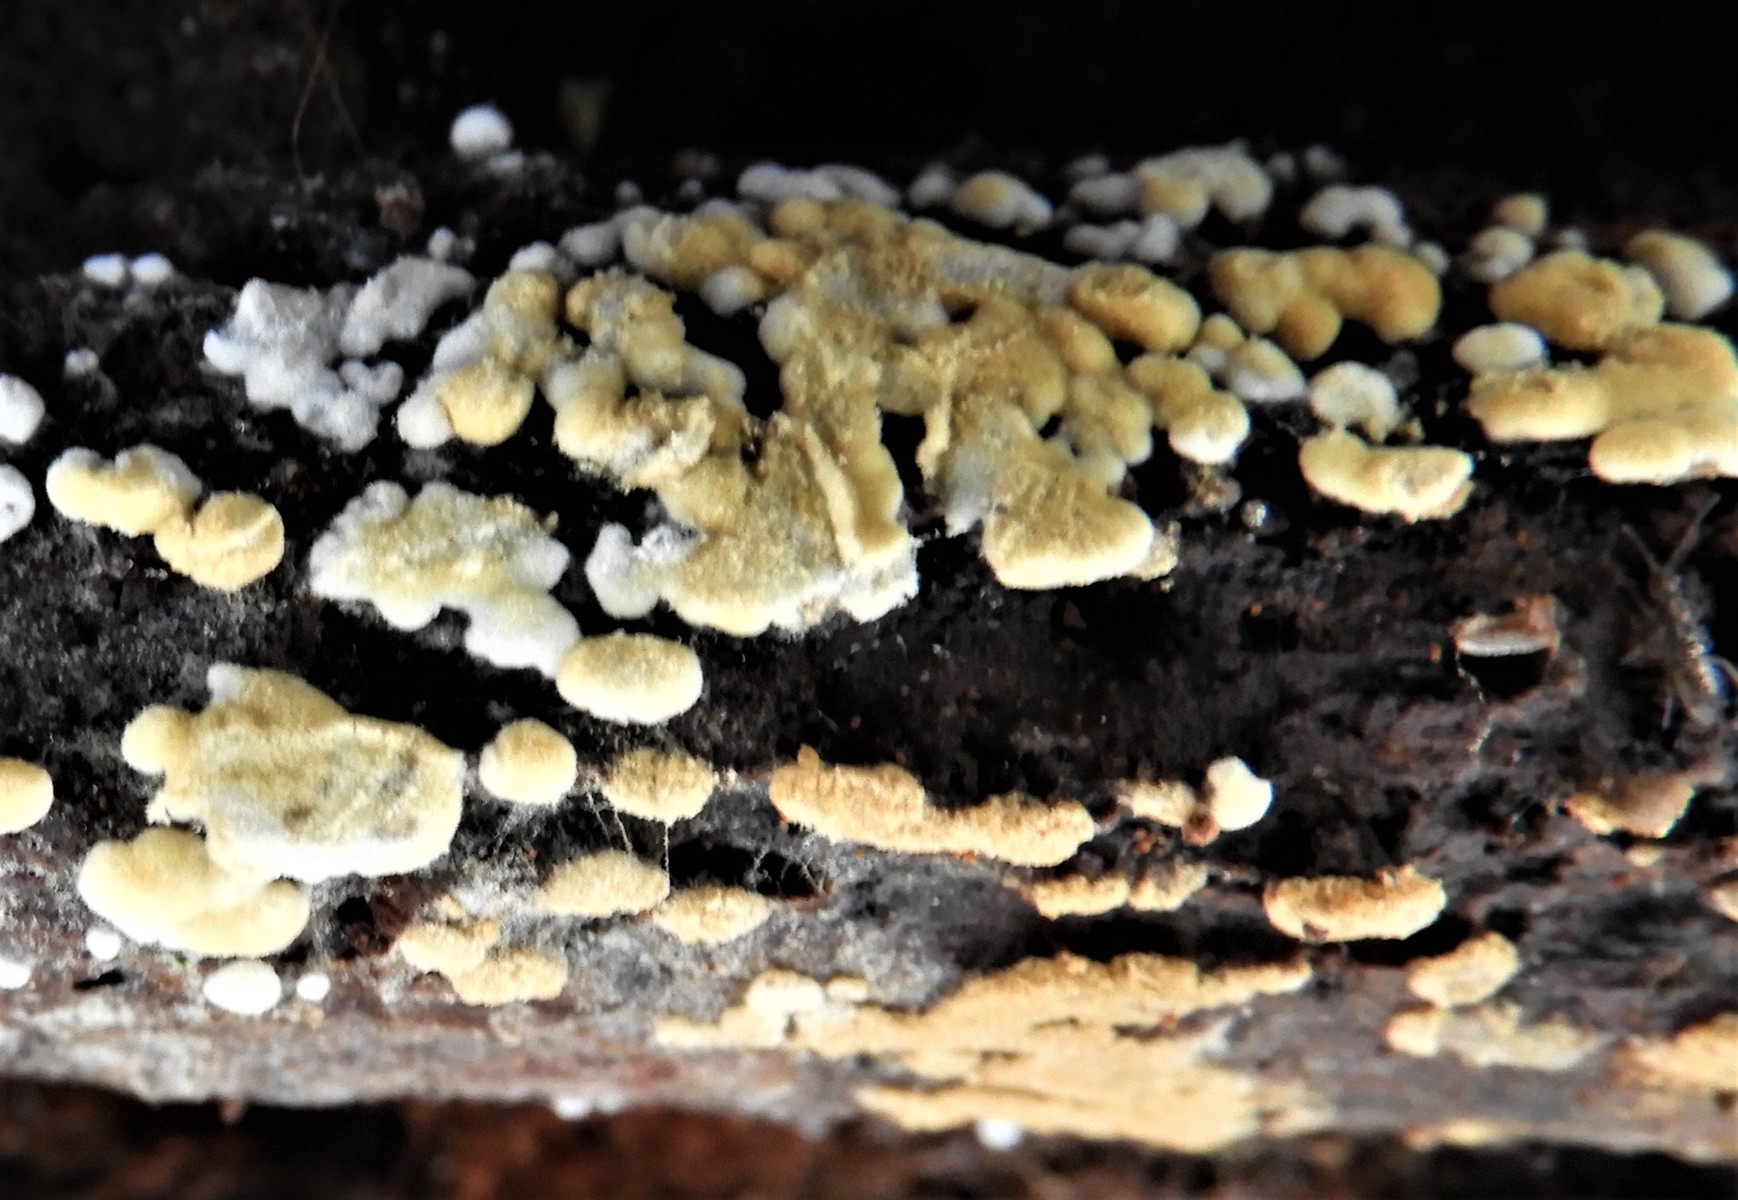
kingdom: Fungi
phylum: Basidiomycota
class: Agaricomycetes
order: Cantharellales
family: Botryobasidiaceae
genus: Botryobasidium
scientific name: Botryobasidium aureum
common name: gylden spindhinde
